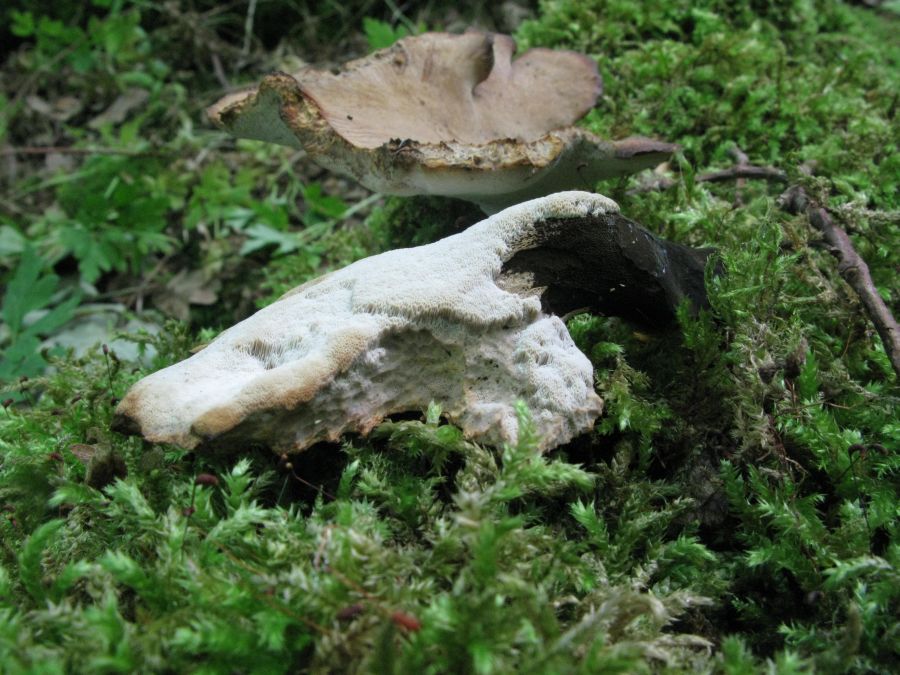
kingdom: Fungi
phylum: Basidiomycota
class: Agaricomycetes
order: Polyporales
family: Polyporaceae
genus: Cerioporus
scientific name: Cerioporus varius
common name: foranderlig stilkporesvamp
